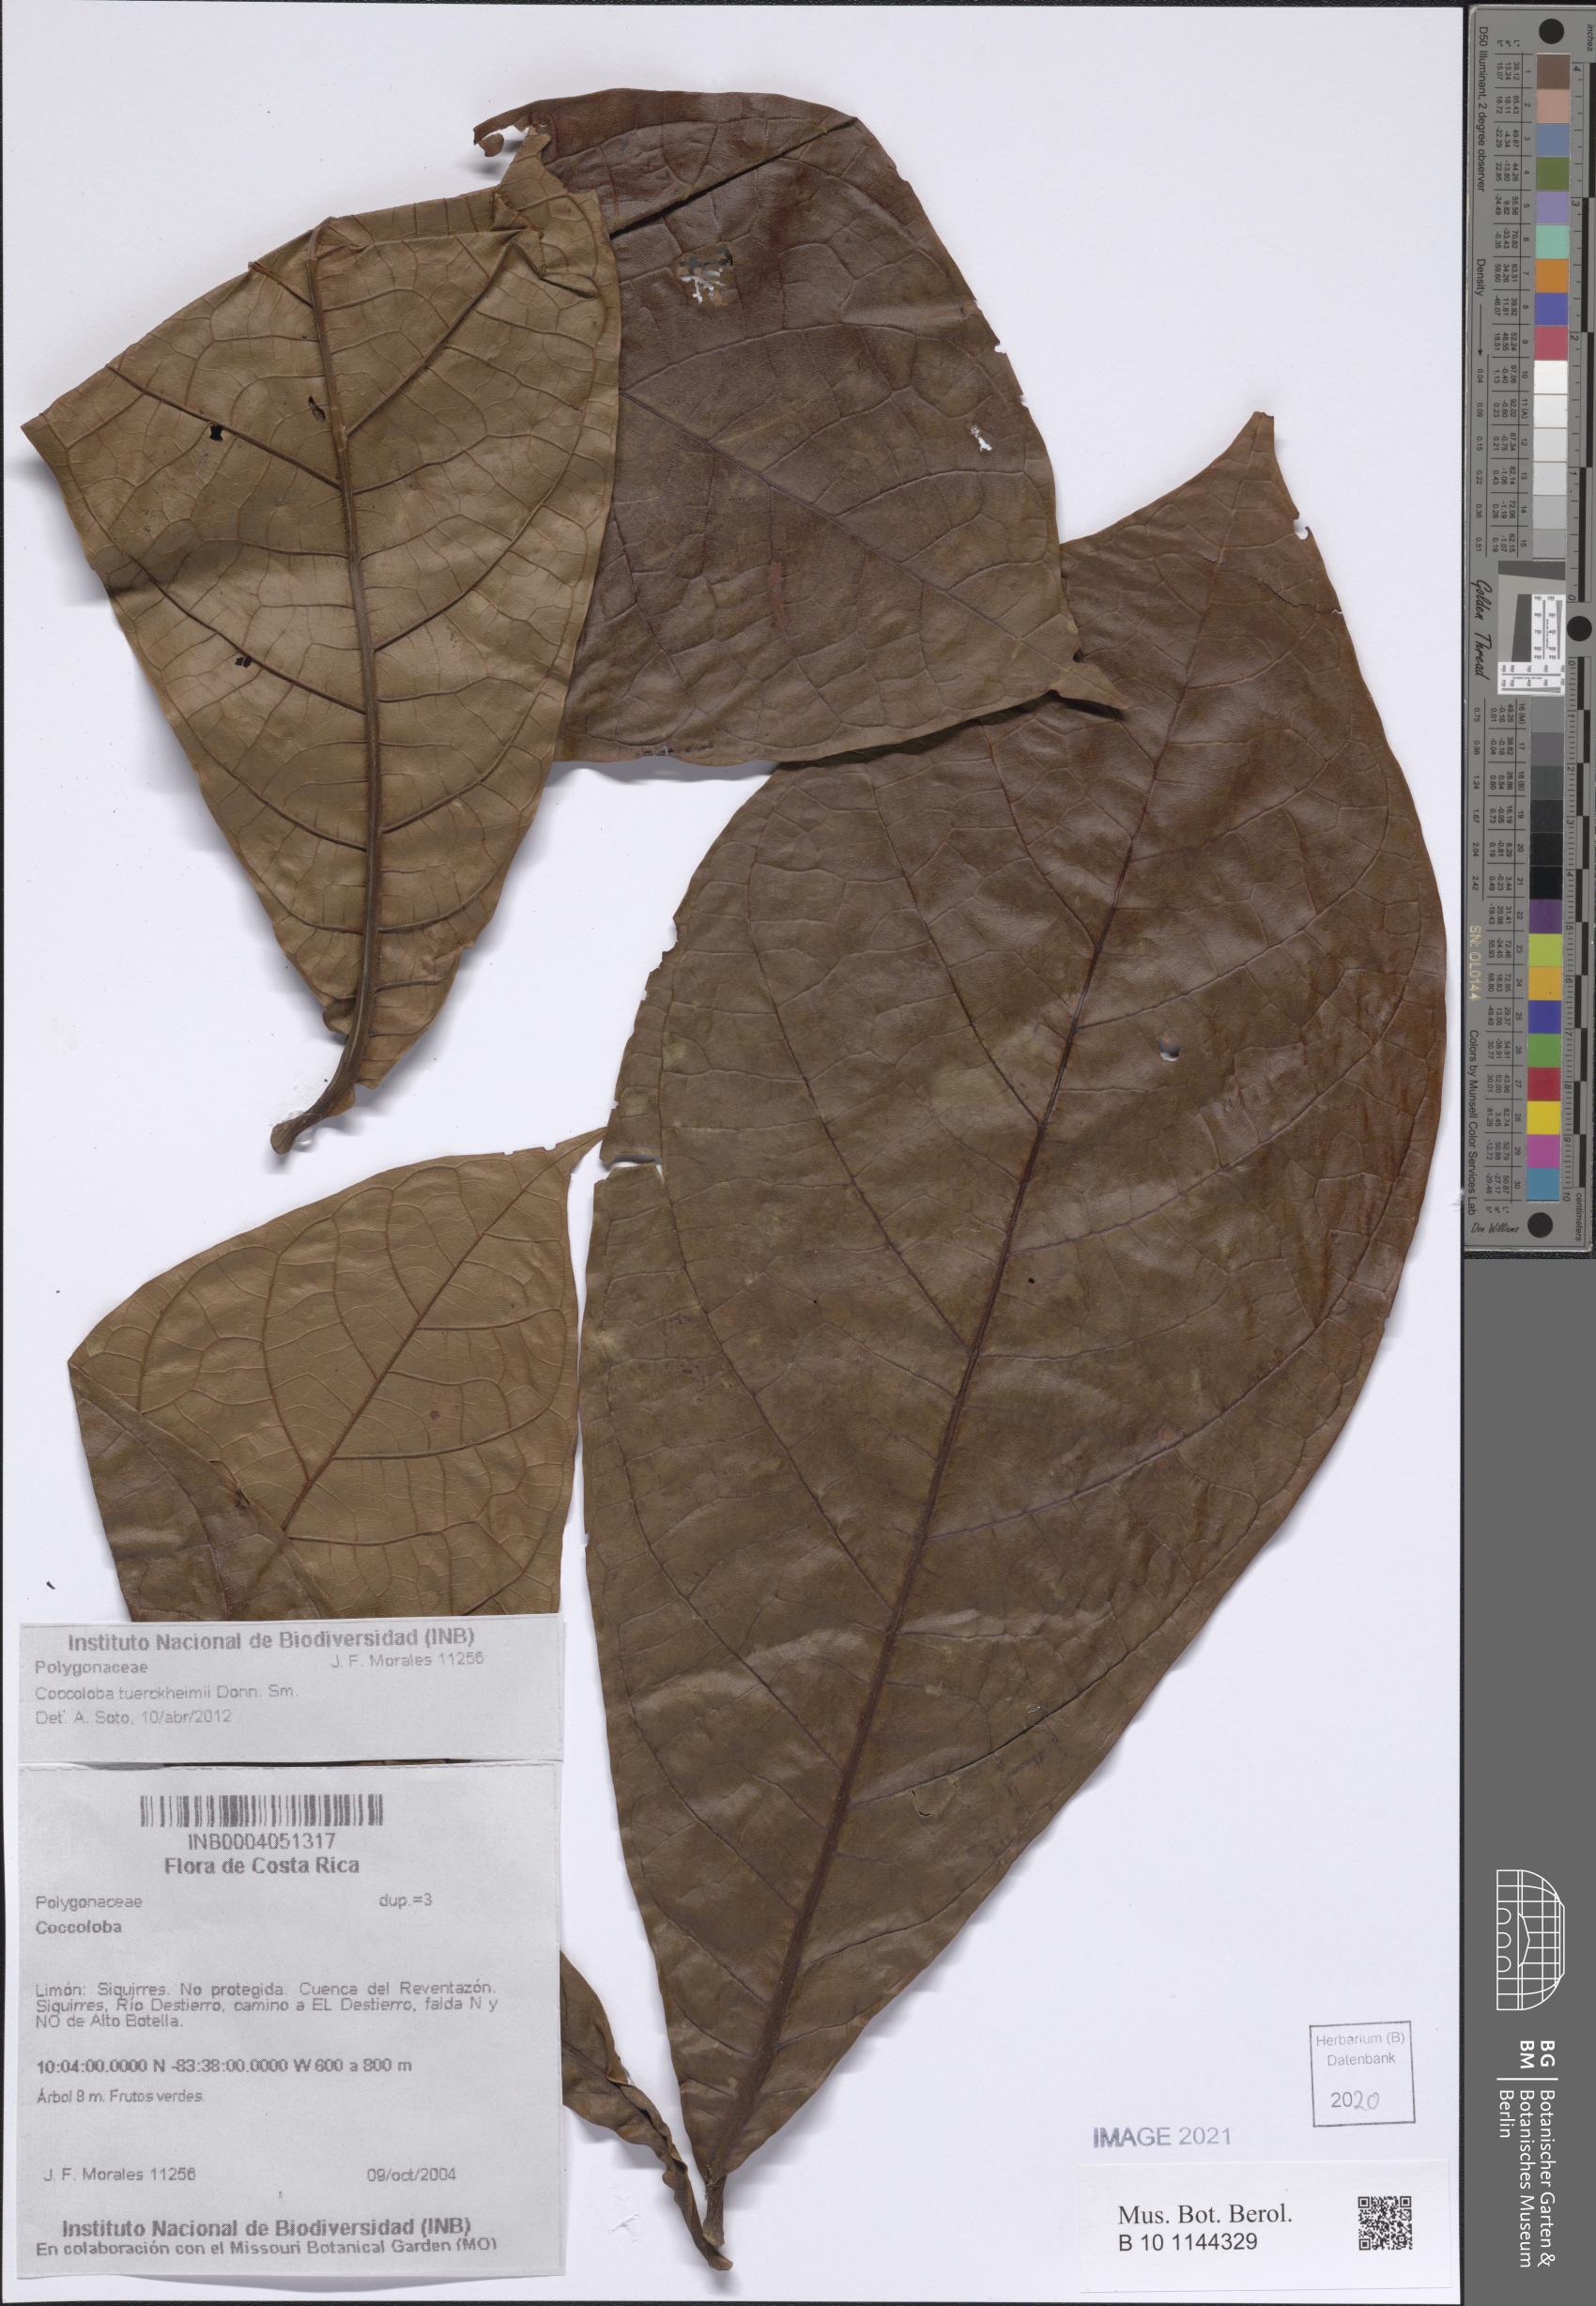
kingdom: Plantae
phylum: Tracheophyta
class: Magnoliopsida
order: Caryophyllales
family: Polygonaceae
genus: Coccoloba
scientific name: Coccoloba tuerckheimii
